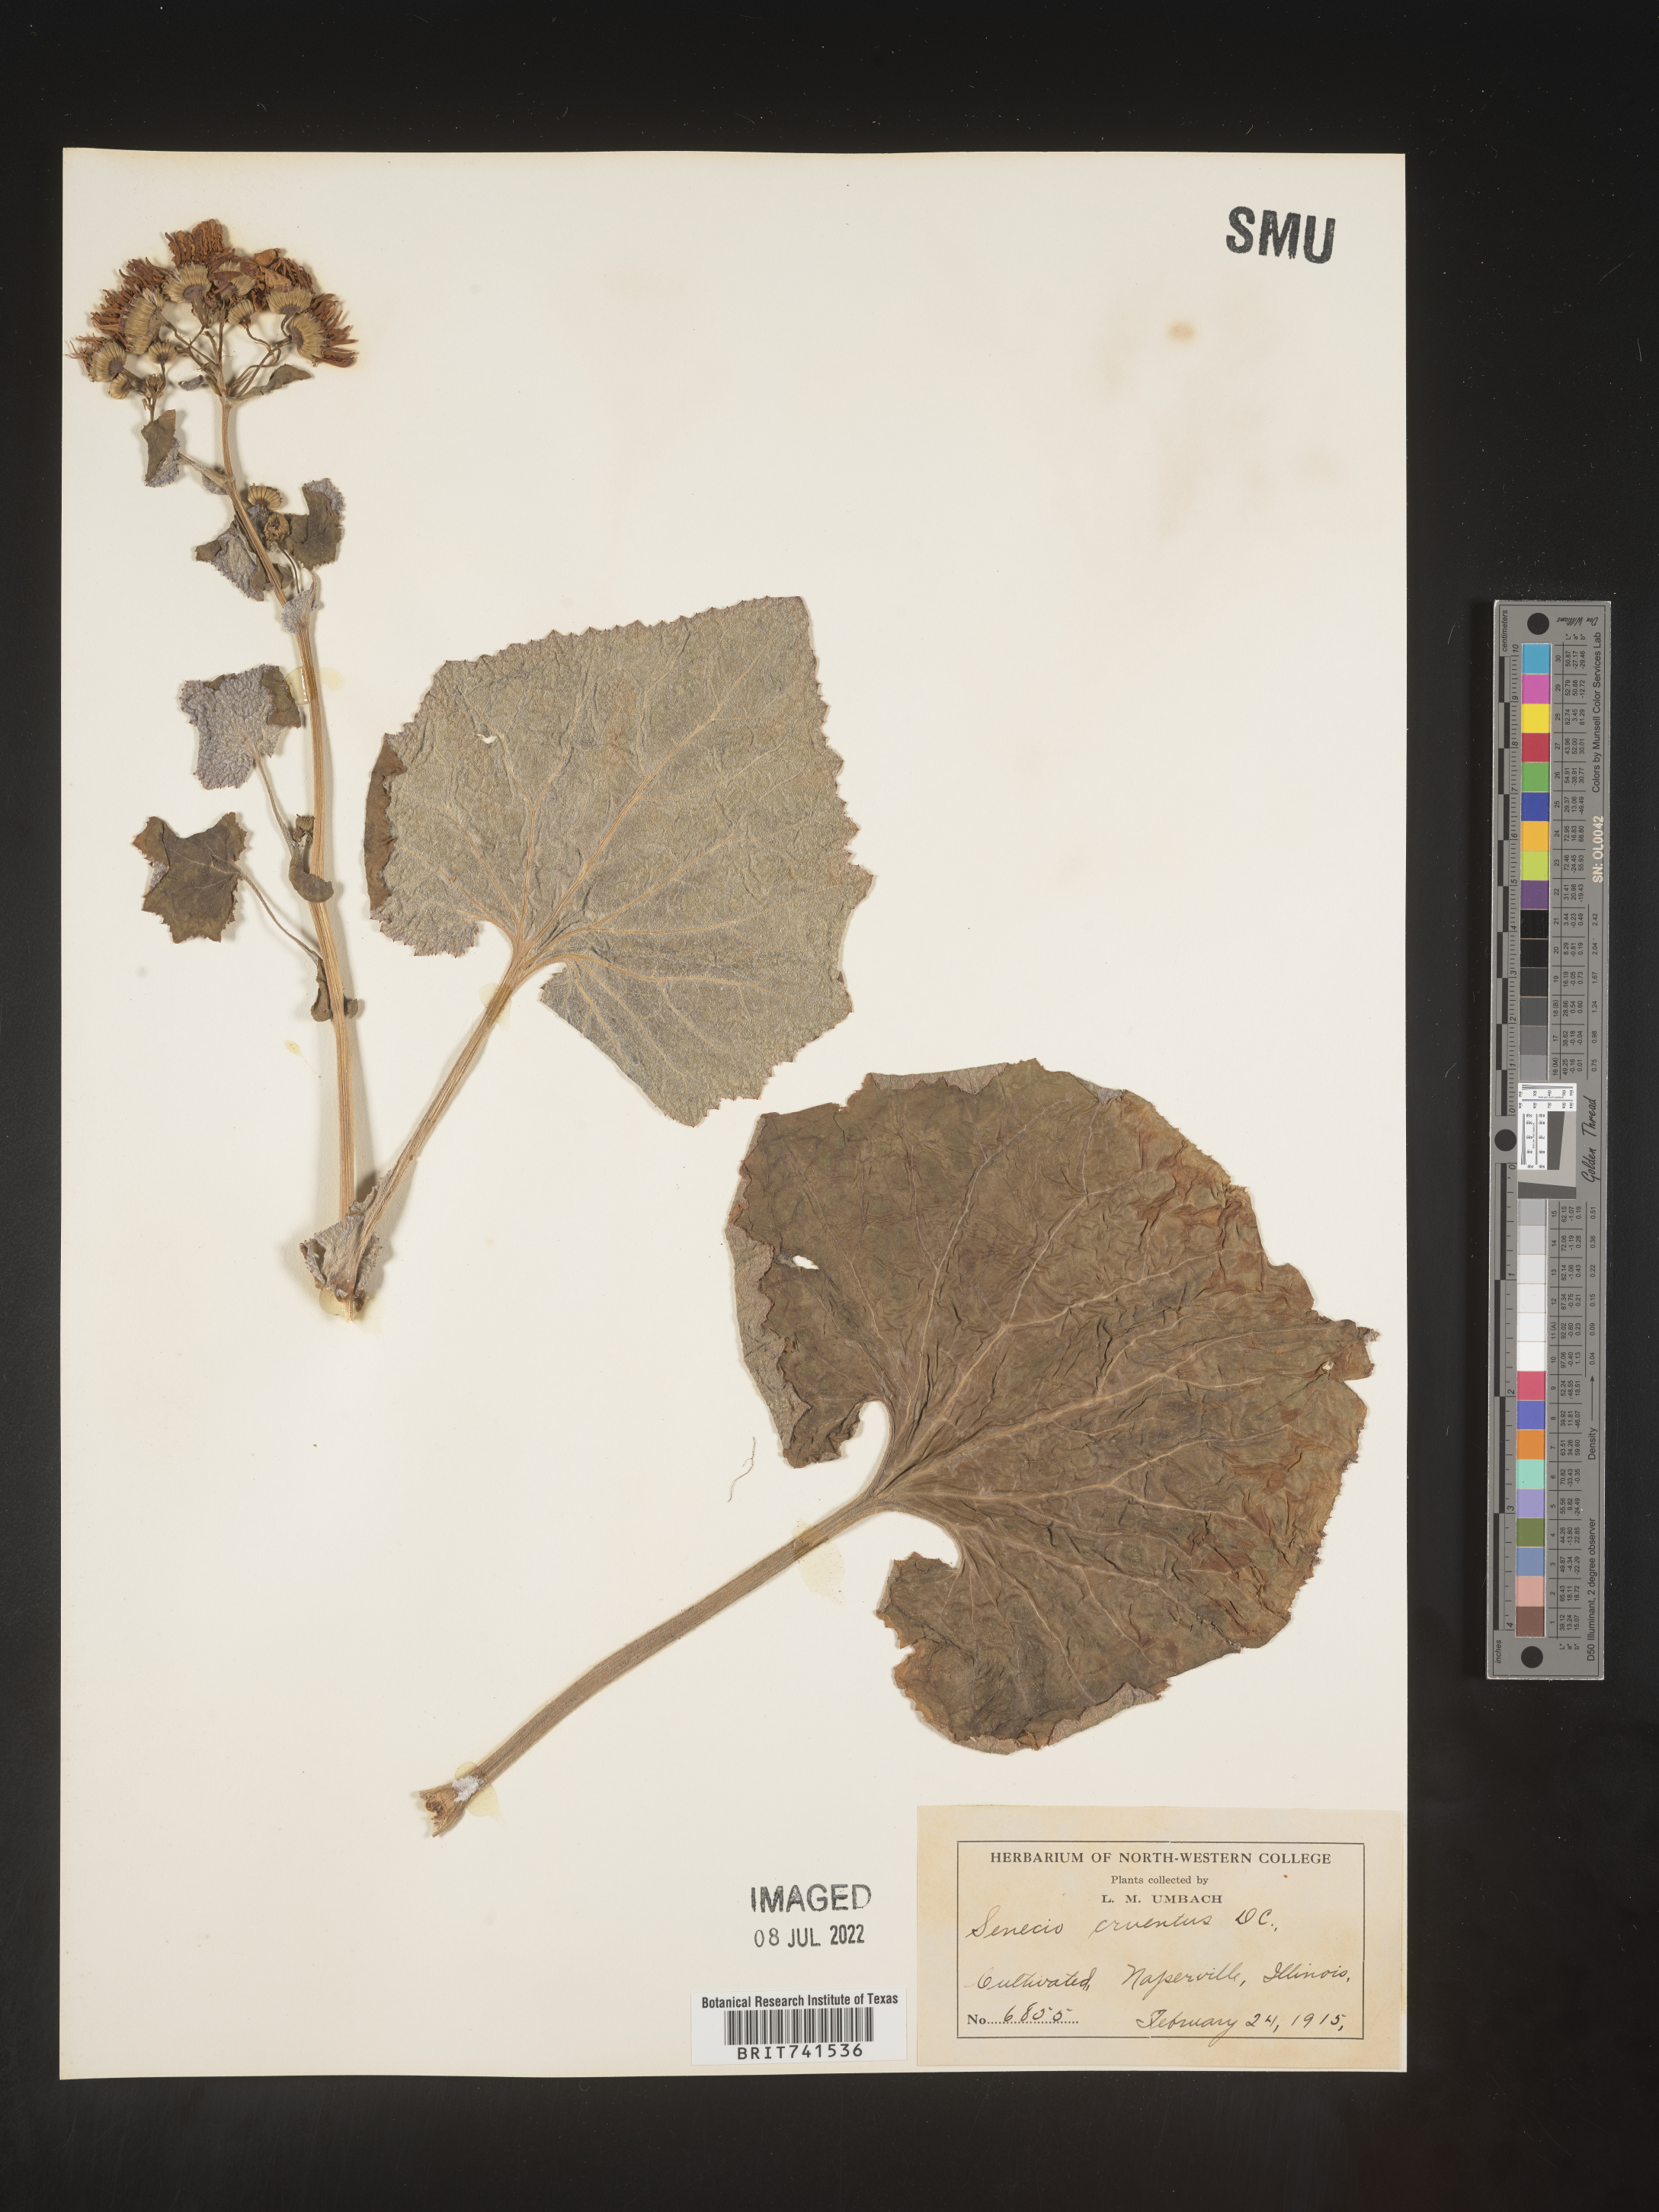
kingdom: Plantae
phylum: Tracheophyta
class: Magnoliopsida
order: Asterales
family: Asteraceae
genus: Senecio
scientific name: Senecio
